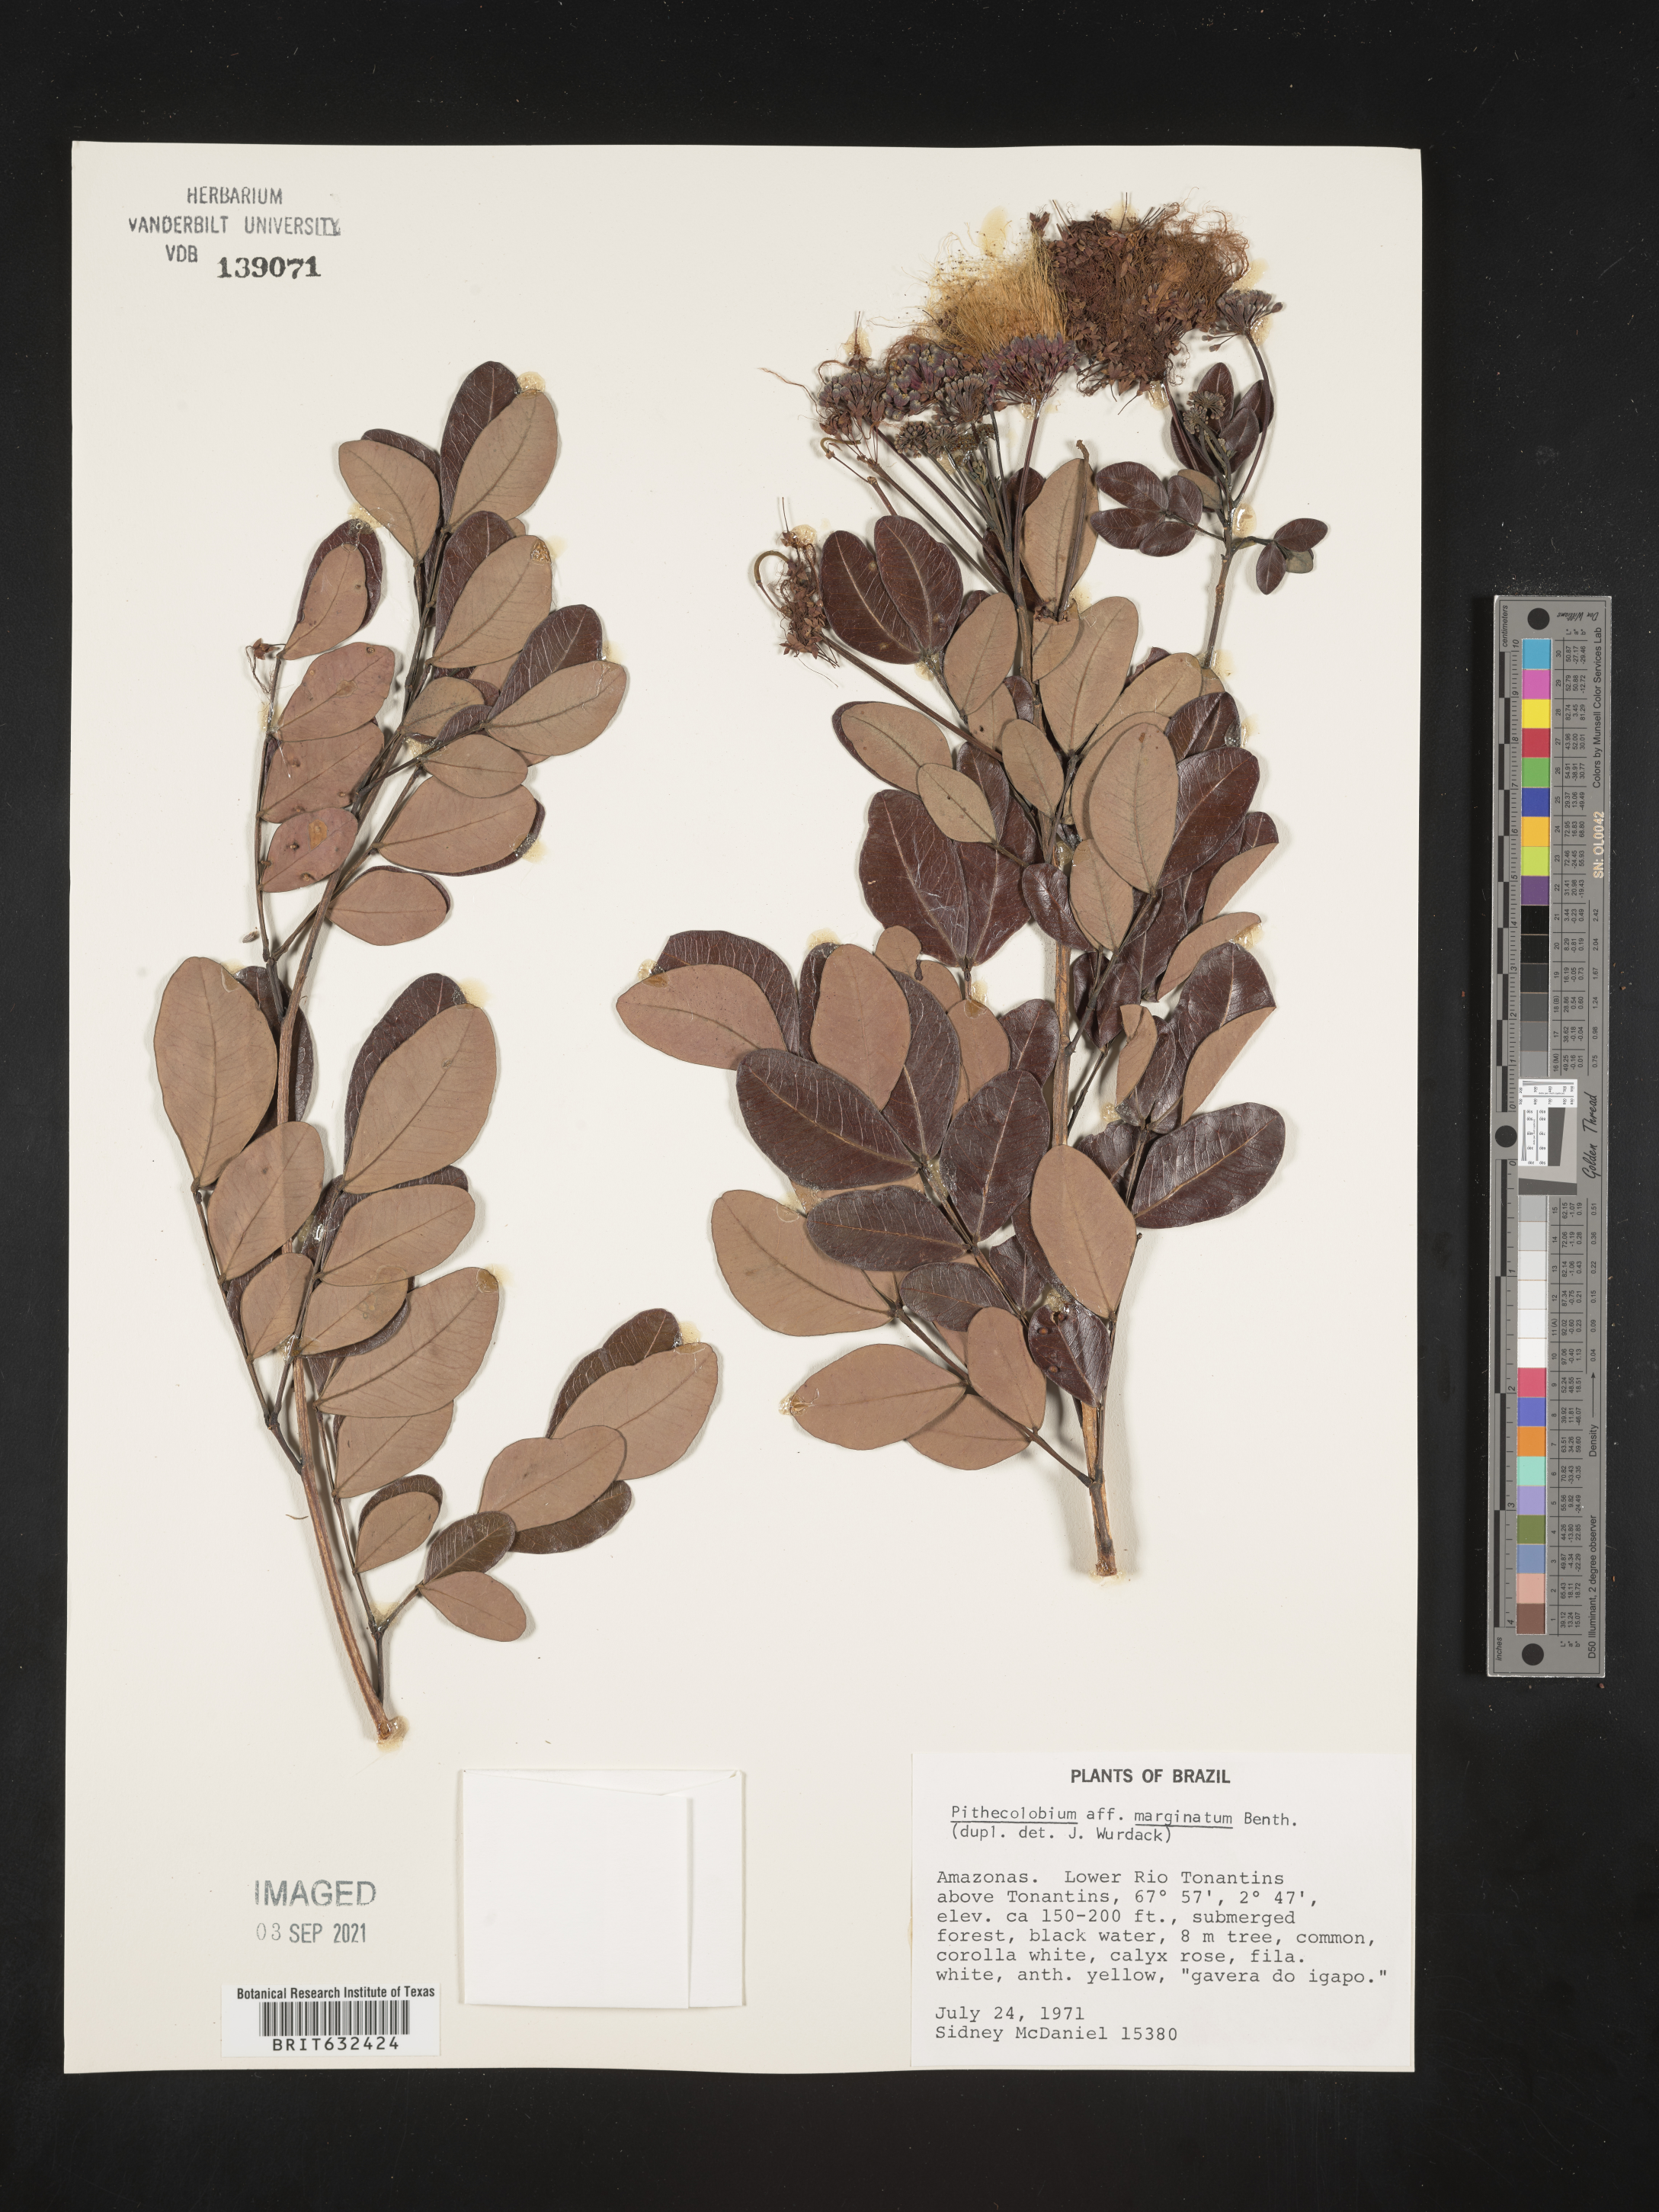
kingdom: Plantae
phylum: Tracheophyta
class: Magnoliopsida
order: Fabales
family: Fabaceae
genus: Pithecellobium
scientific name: Pithecellobium
